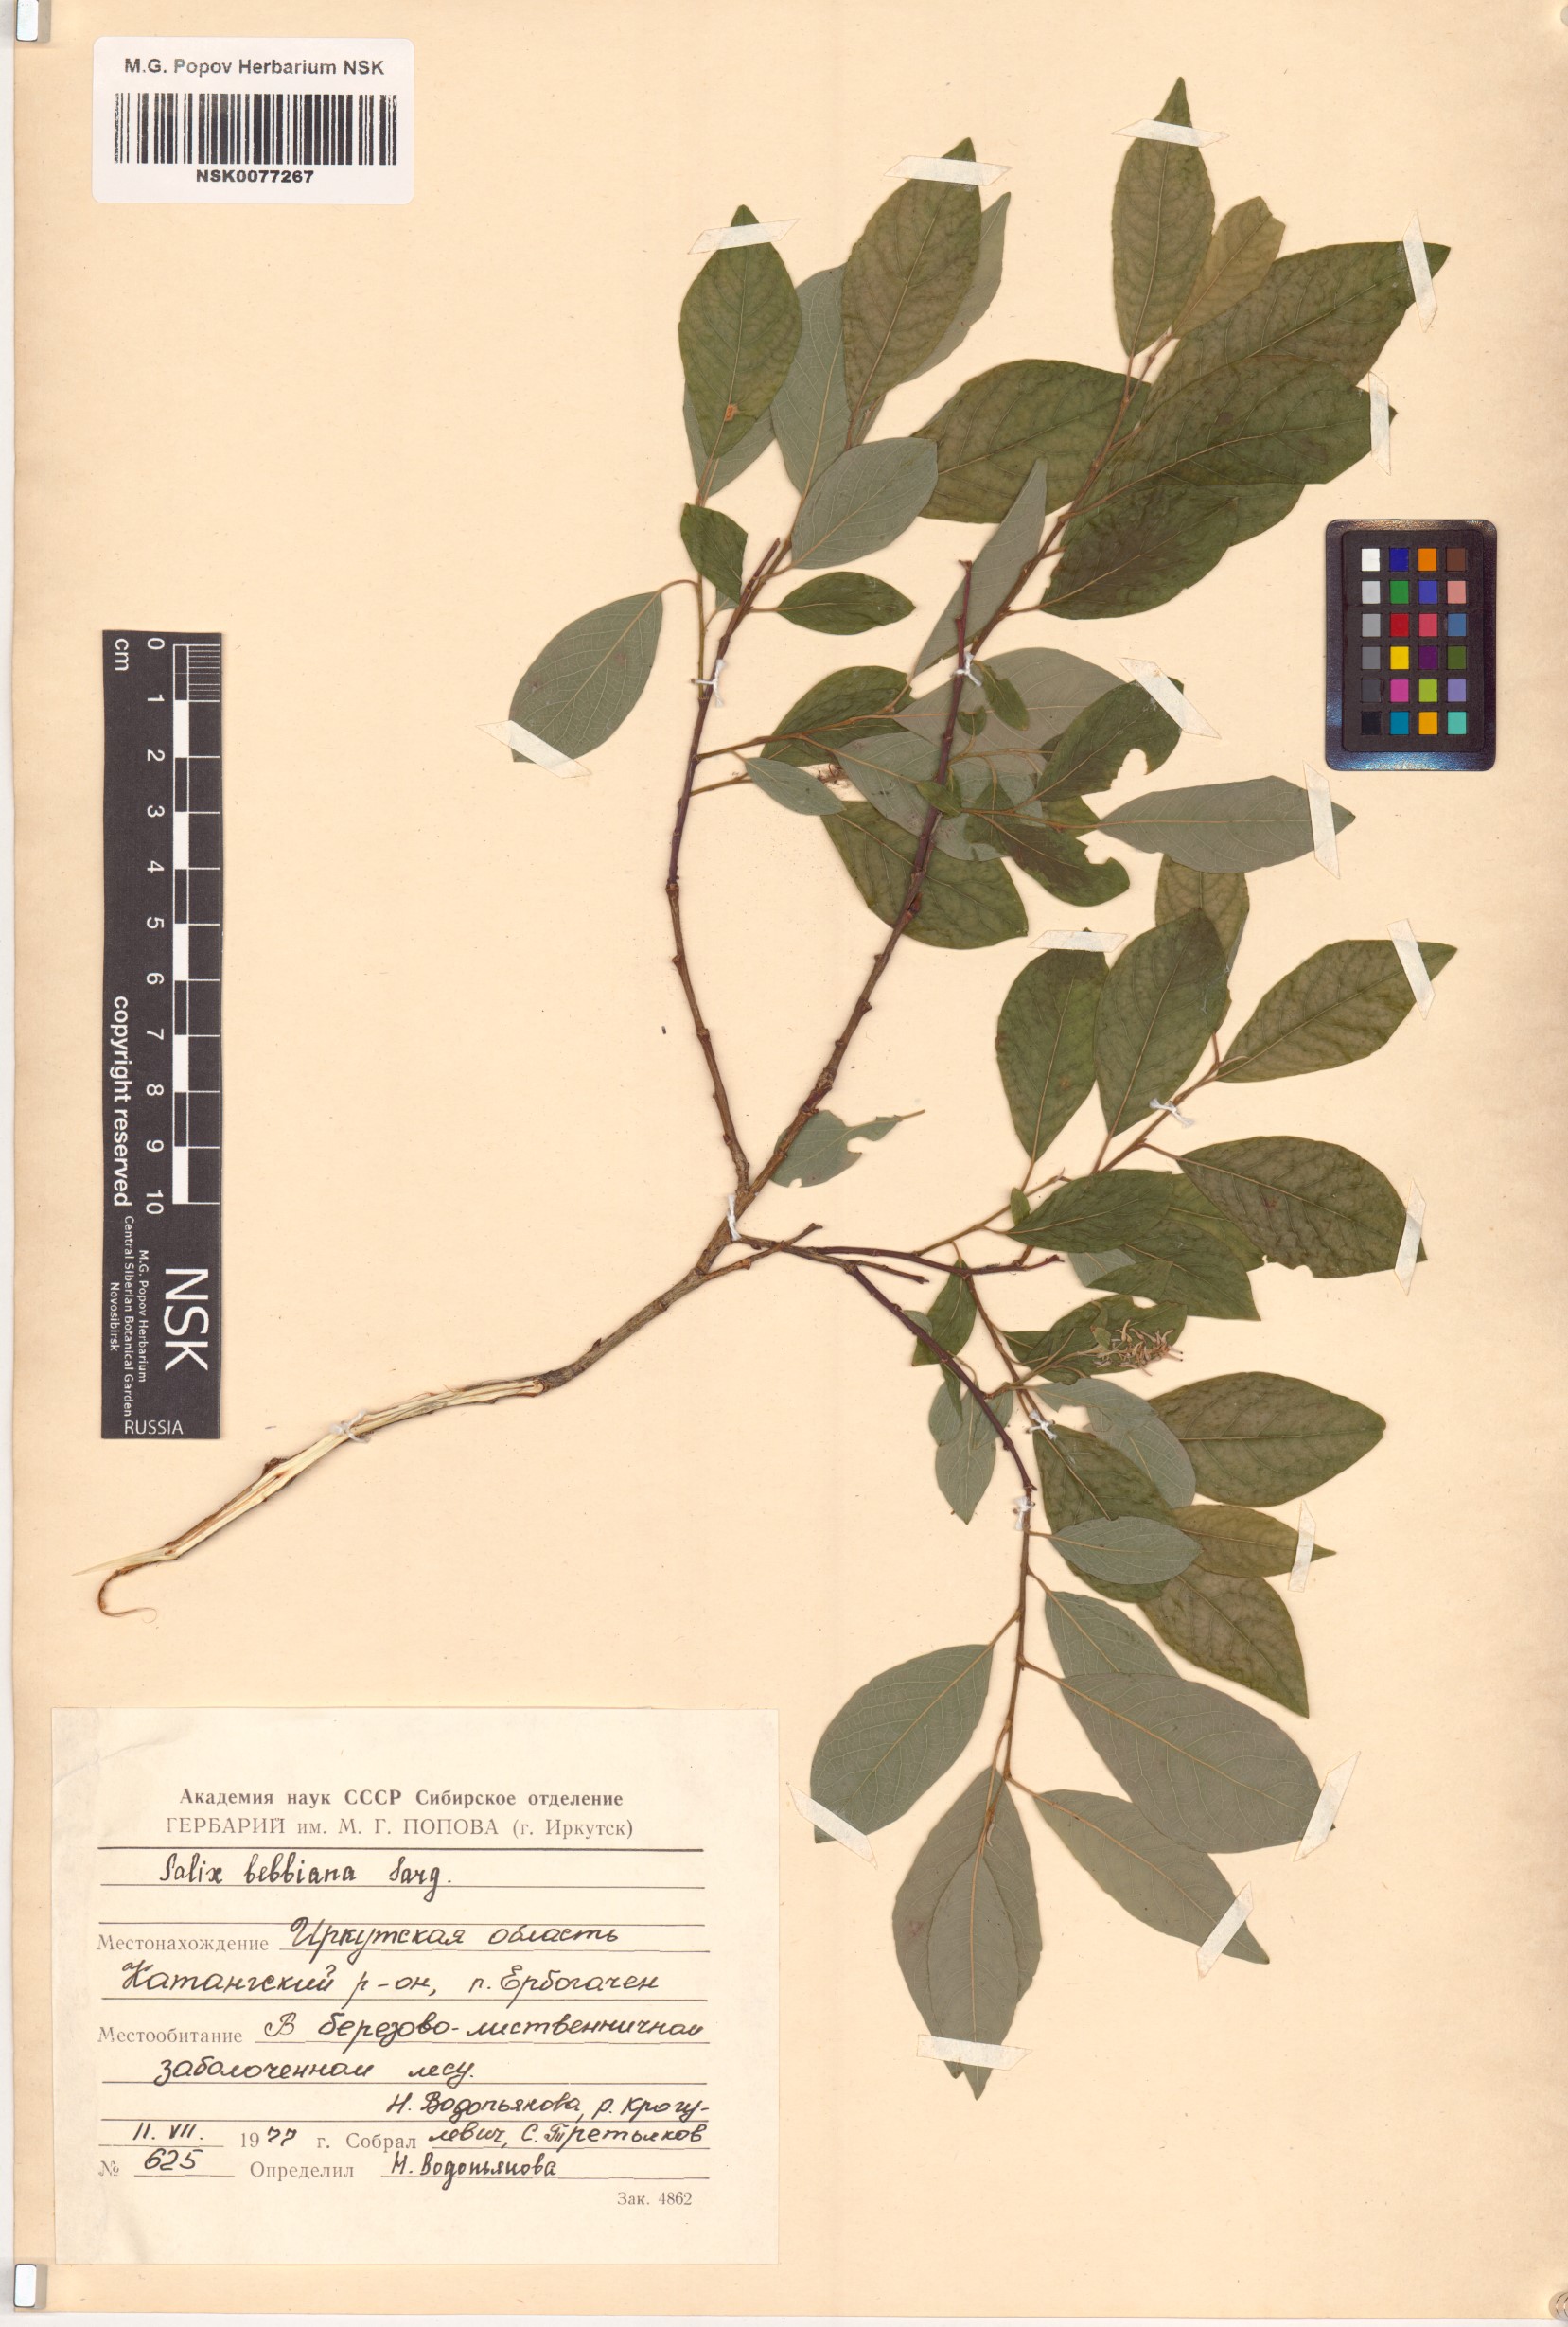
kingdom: Plantae
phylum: Tracheophyta
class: Magnoliopsida
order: Malpighiales
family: Salicaceae
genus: Salix
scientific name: Salix bebbiana
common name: Bebb's willow
